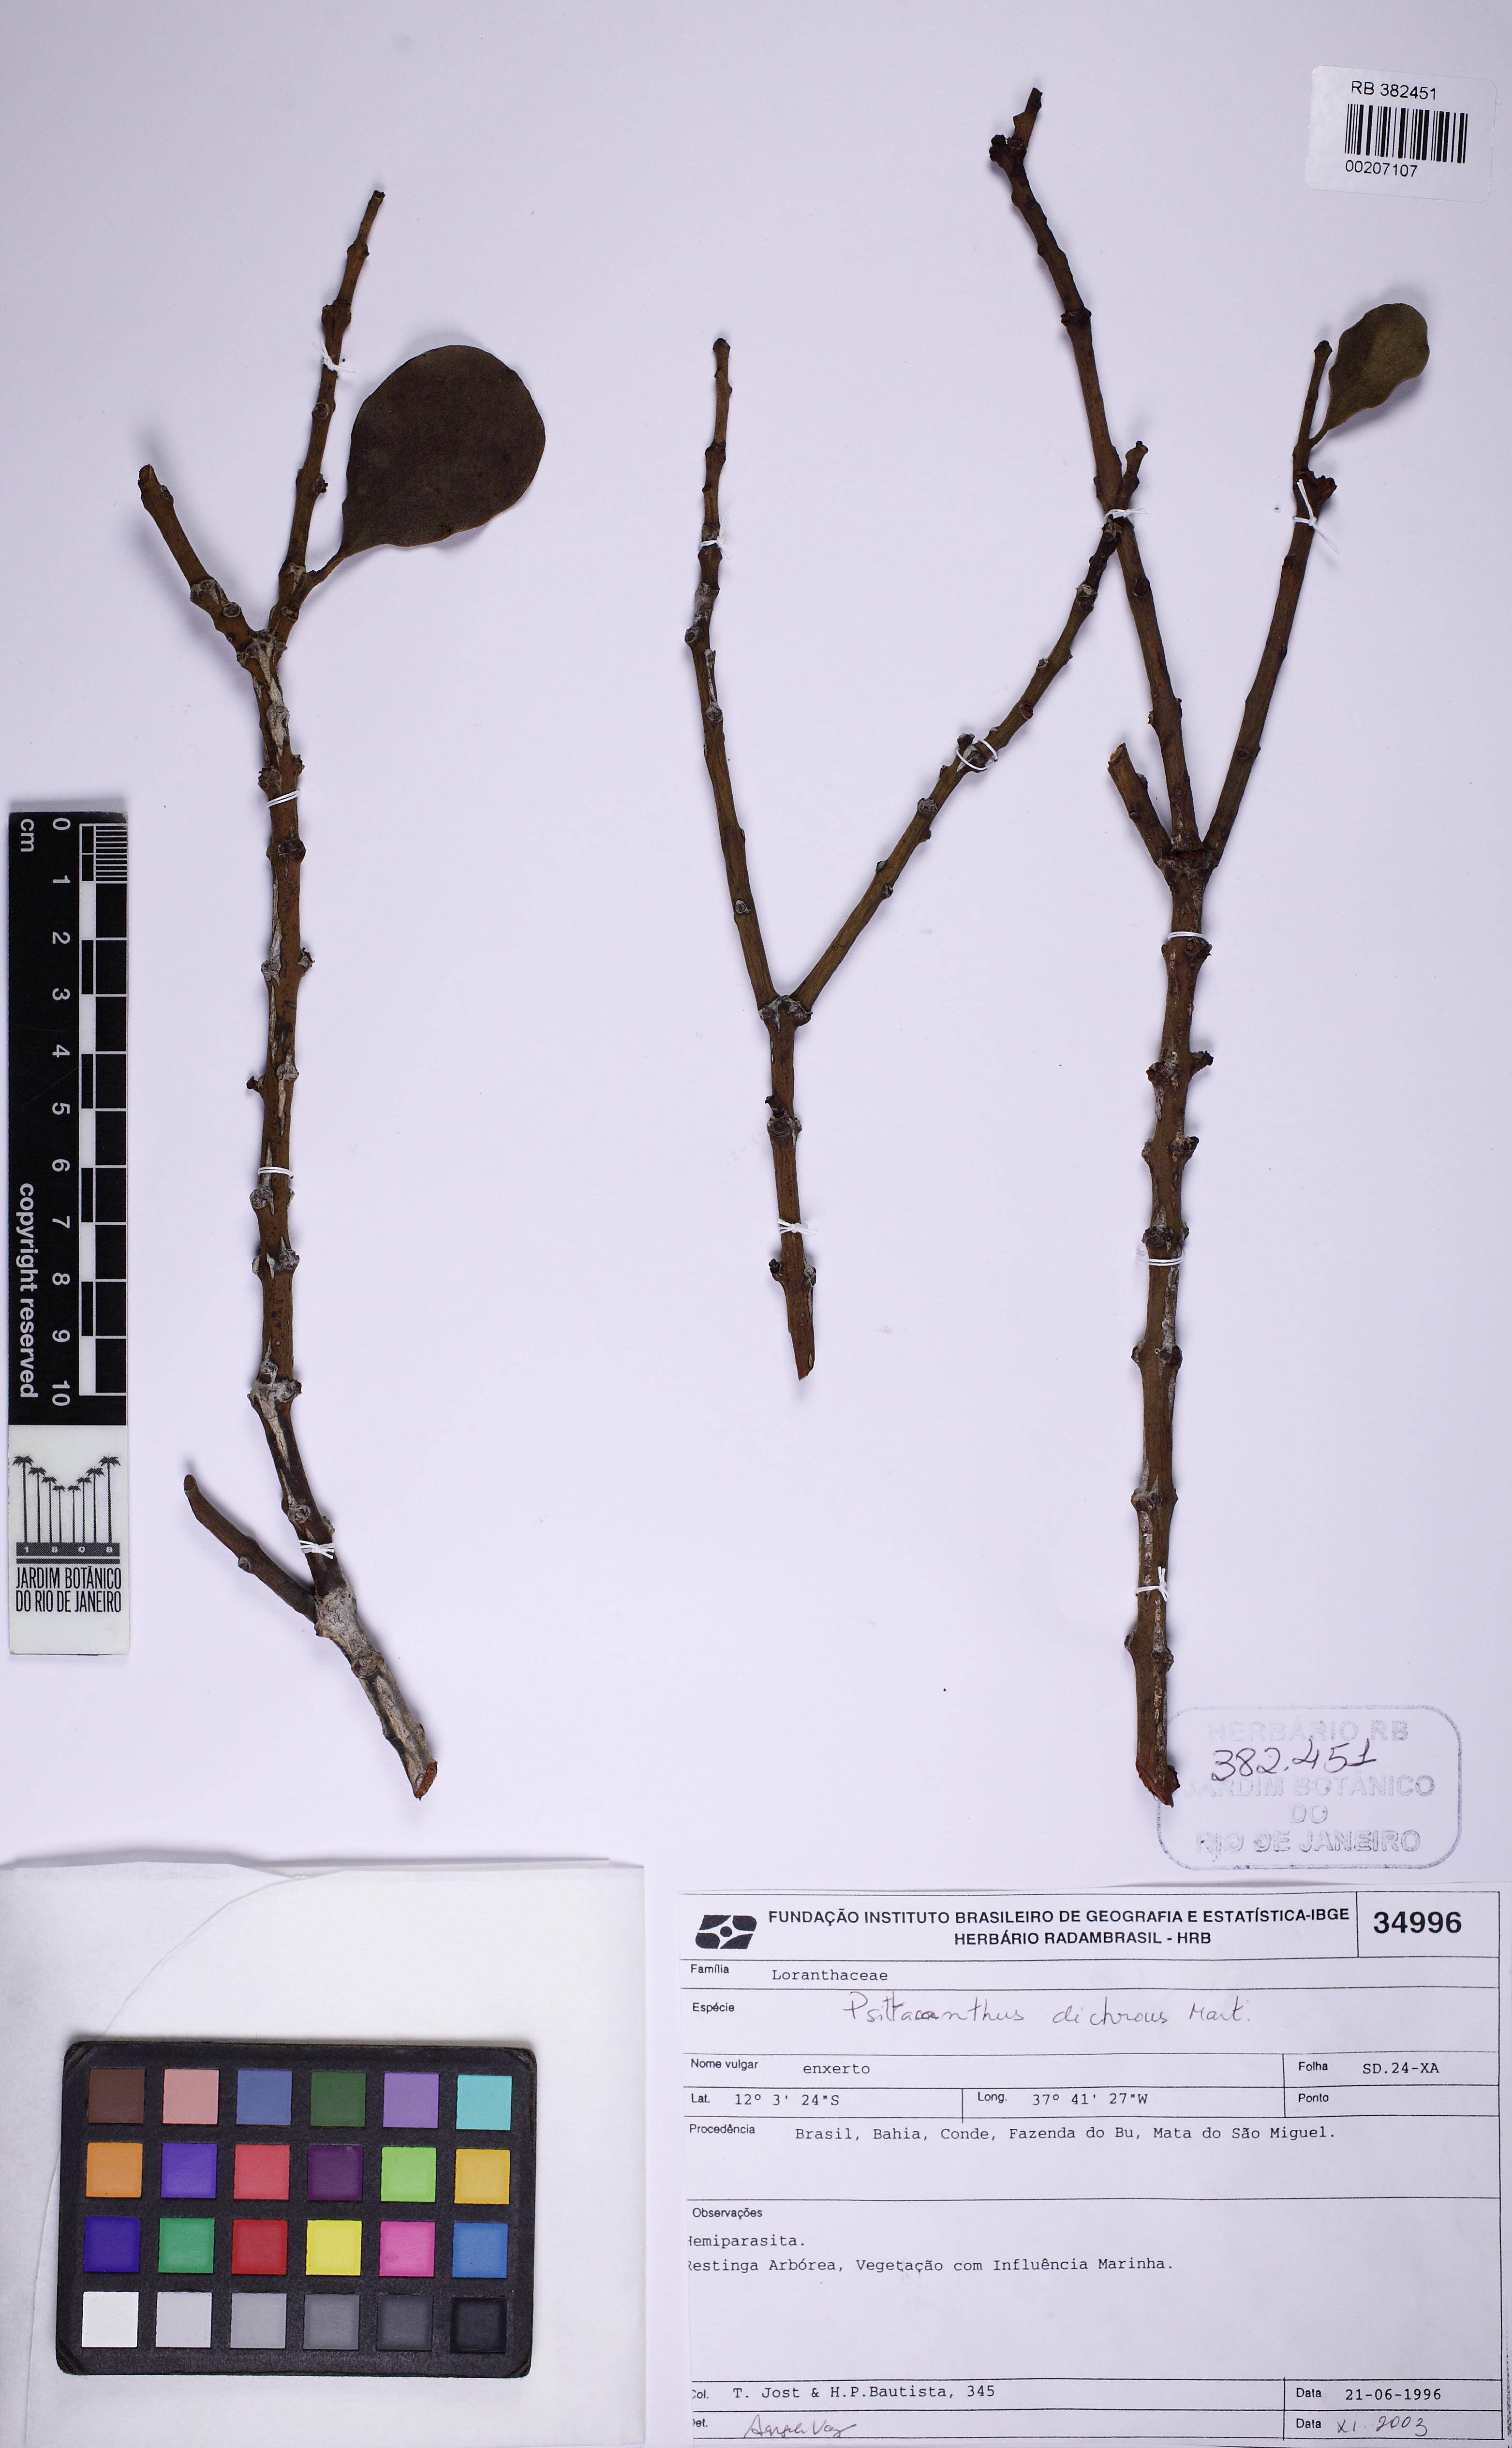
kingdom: Plantae
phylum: Tracheophyta
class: Magnoliopsida
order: Santalales
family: Loranthaceae
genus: Psittacanthus
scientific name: Psittacanthus dichroos
